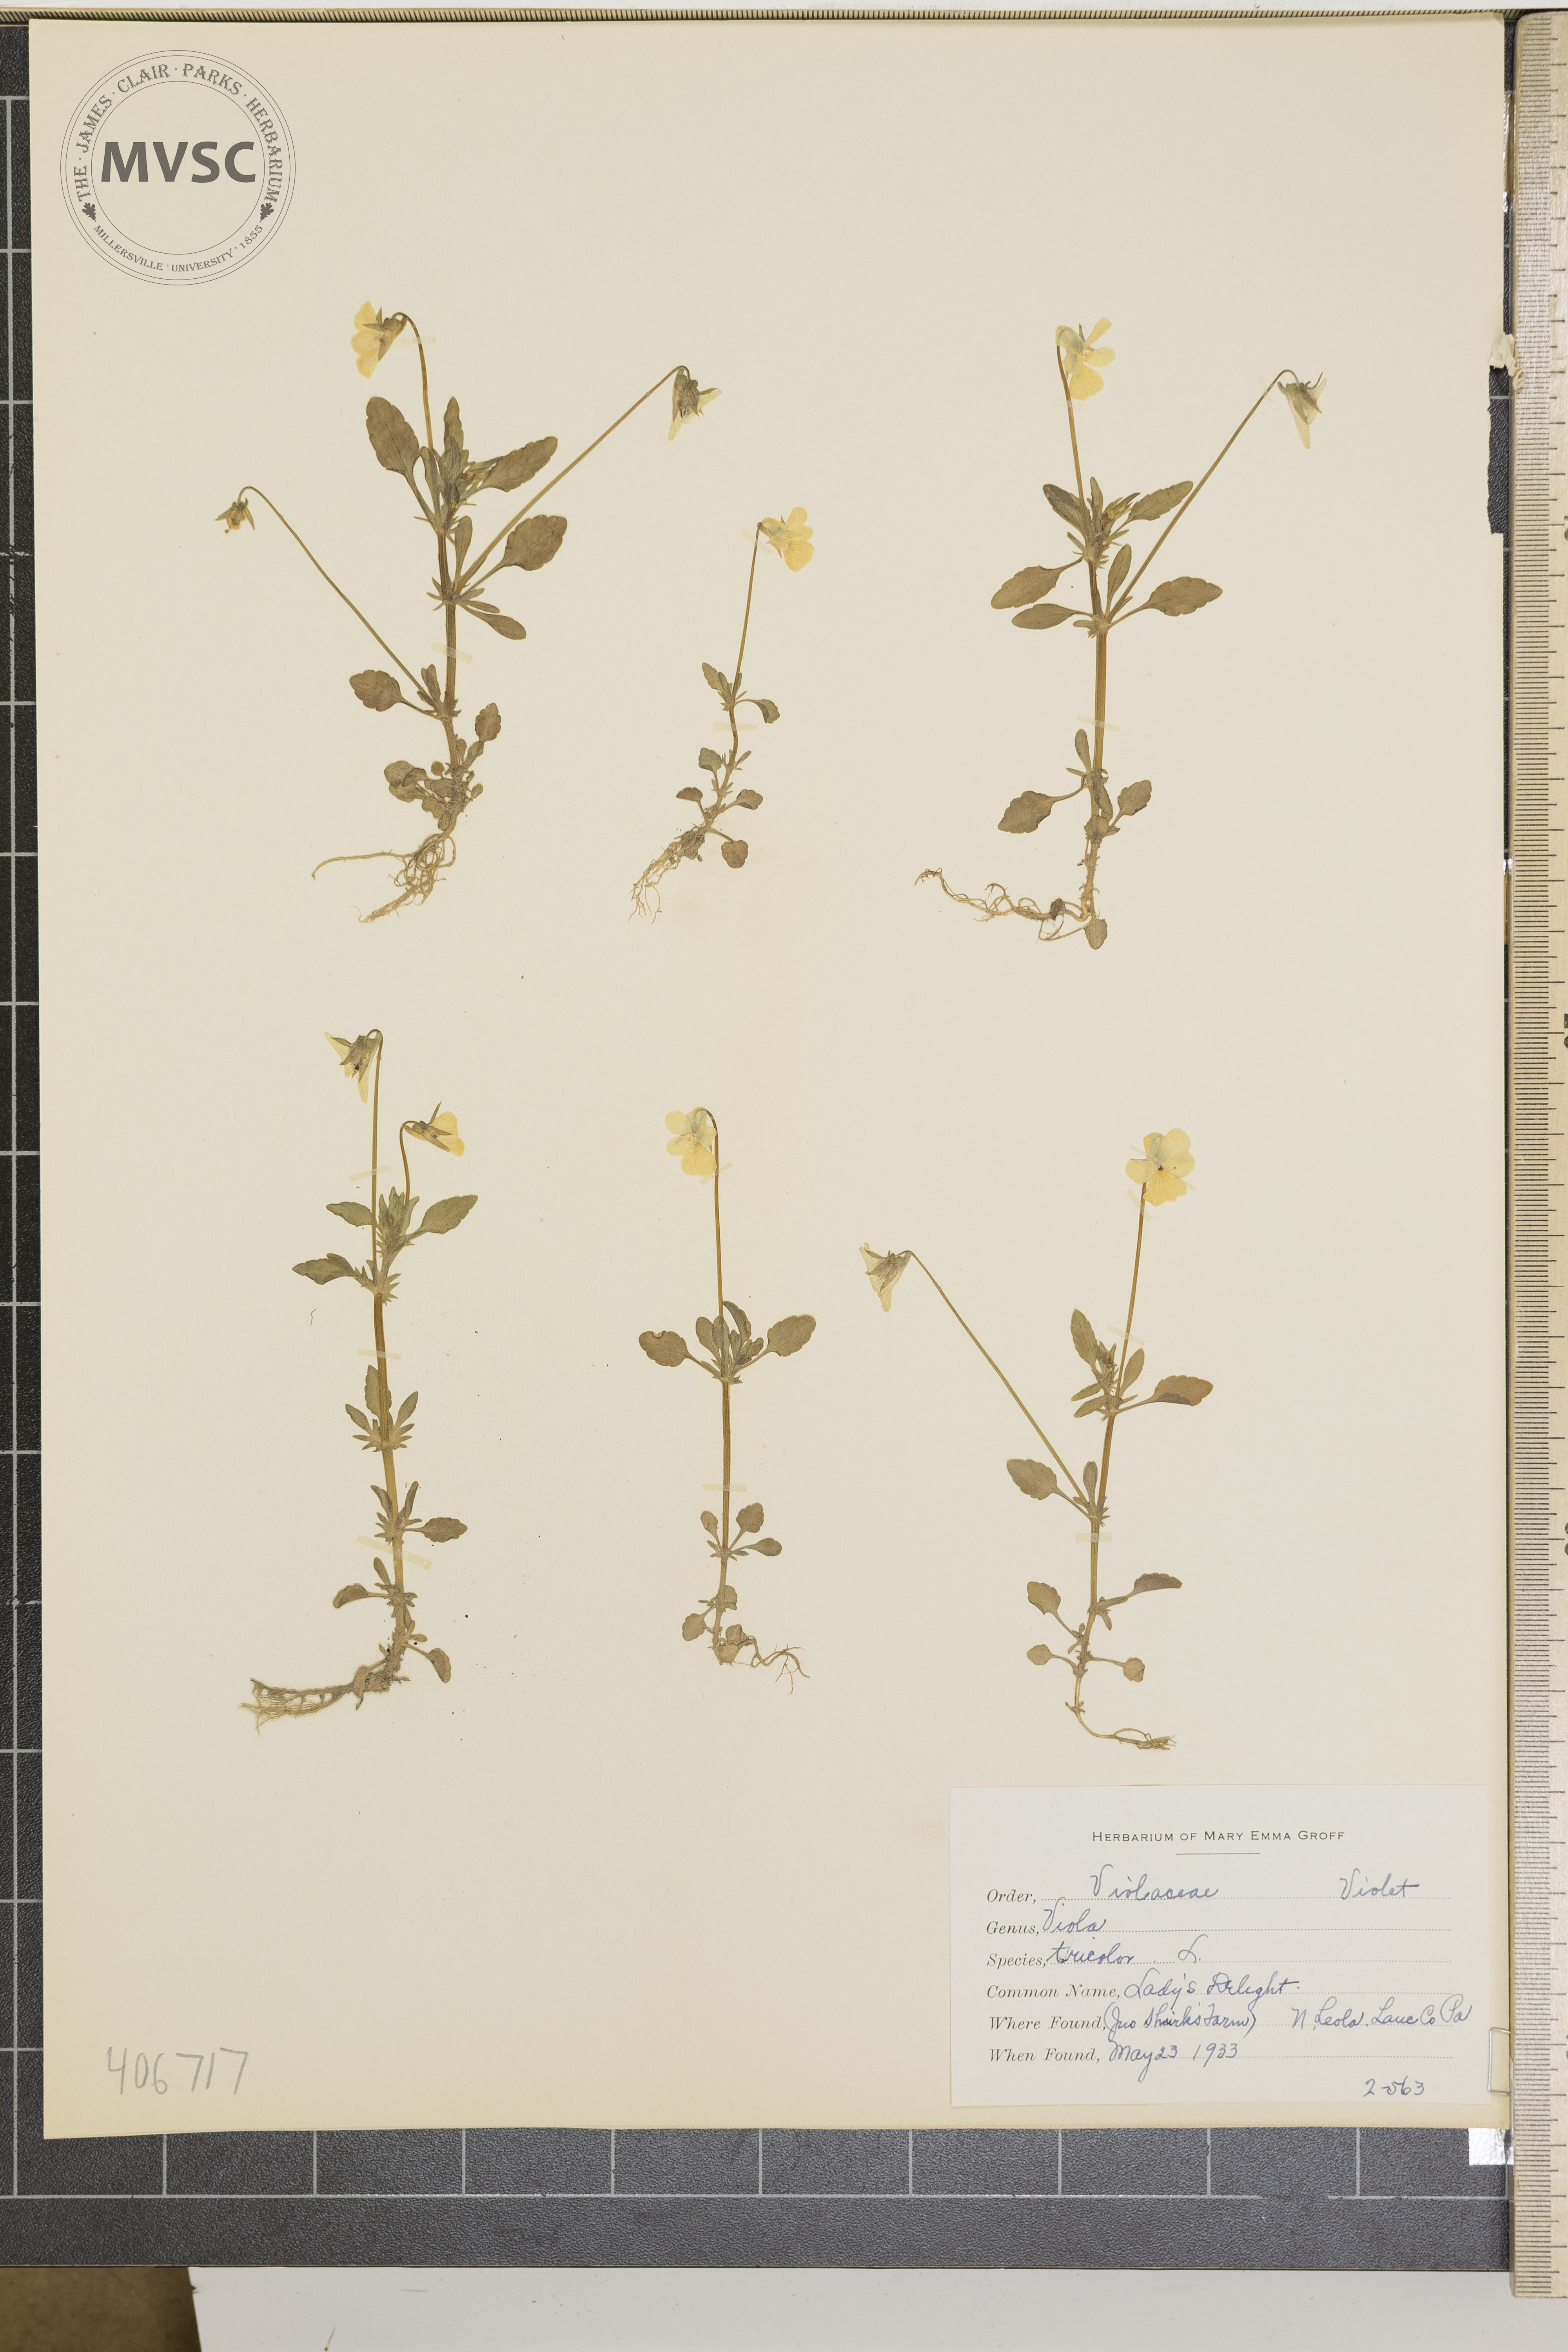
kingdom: Plantae
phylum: Tracheophyta
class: Magnoliopsida
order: Malpighiales
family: Violaceae
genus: Viola
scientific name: Viola tricolor
